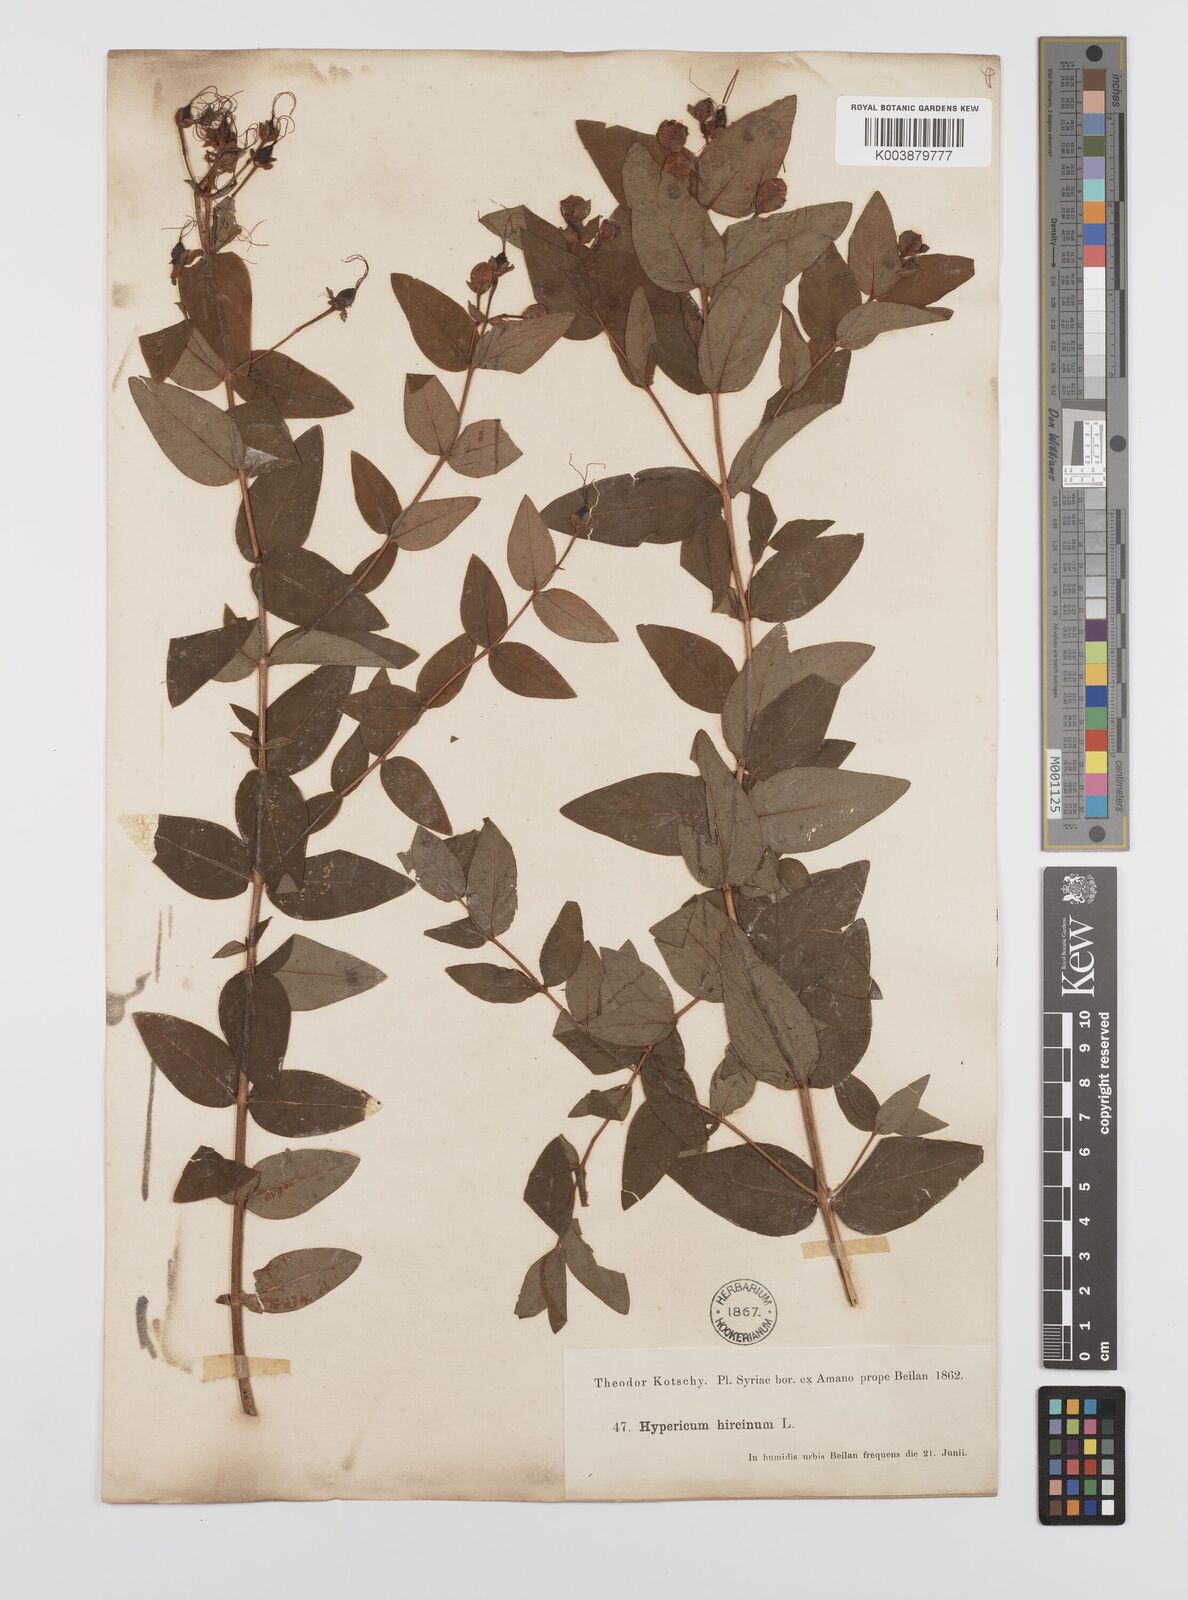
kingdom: Plantae
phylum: Tracheophyta
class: Magnoliopsida
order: Malpighiales
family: Hypericaceae
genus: Hypericum
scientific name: Hypericum hircinum
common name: Stinking tutsan
